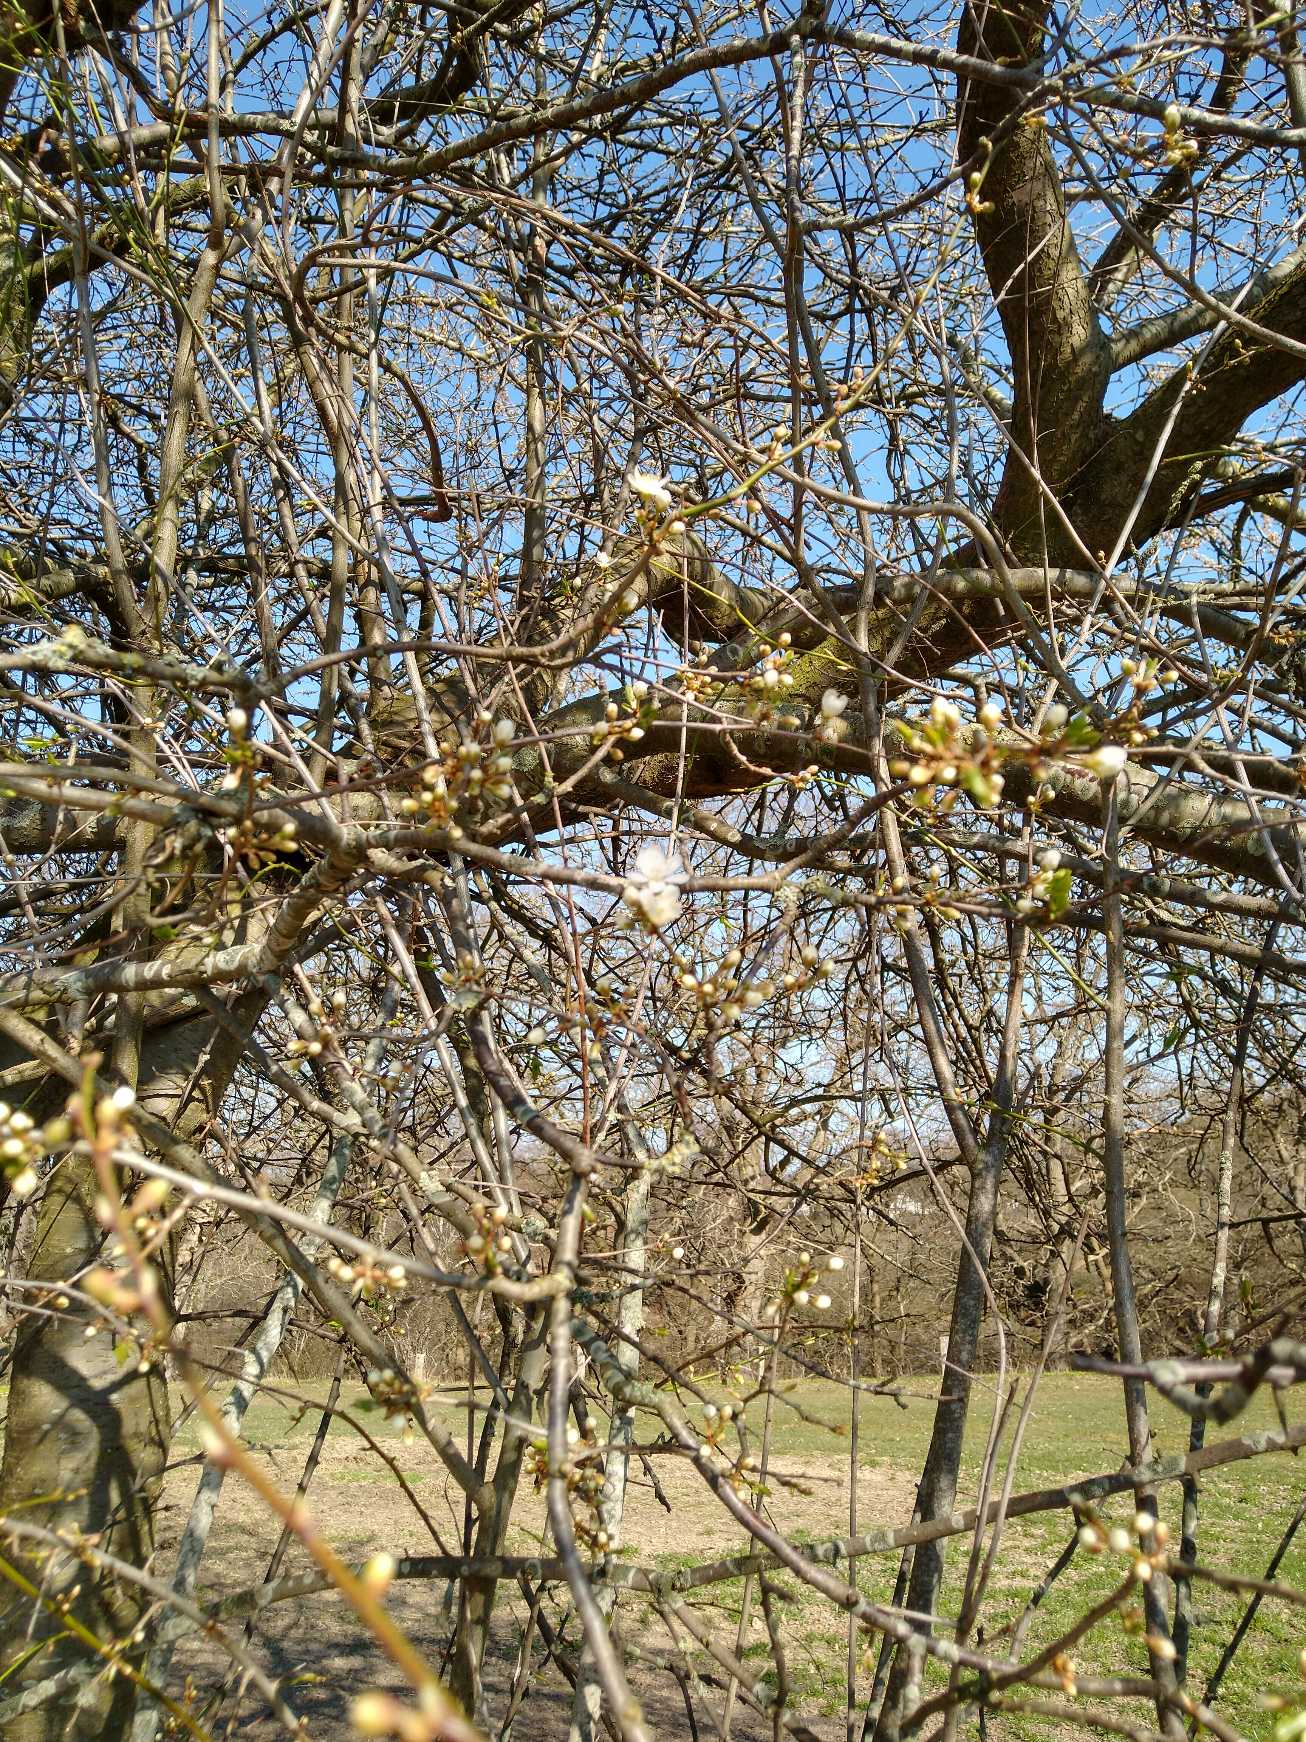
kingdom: Plantae
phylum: Tracheophyta
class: Magnoliopsida
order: Rosales
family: Rosaceae
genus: Prunus
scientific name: Prunus cerasifera
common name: Mirabel
